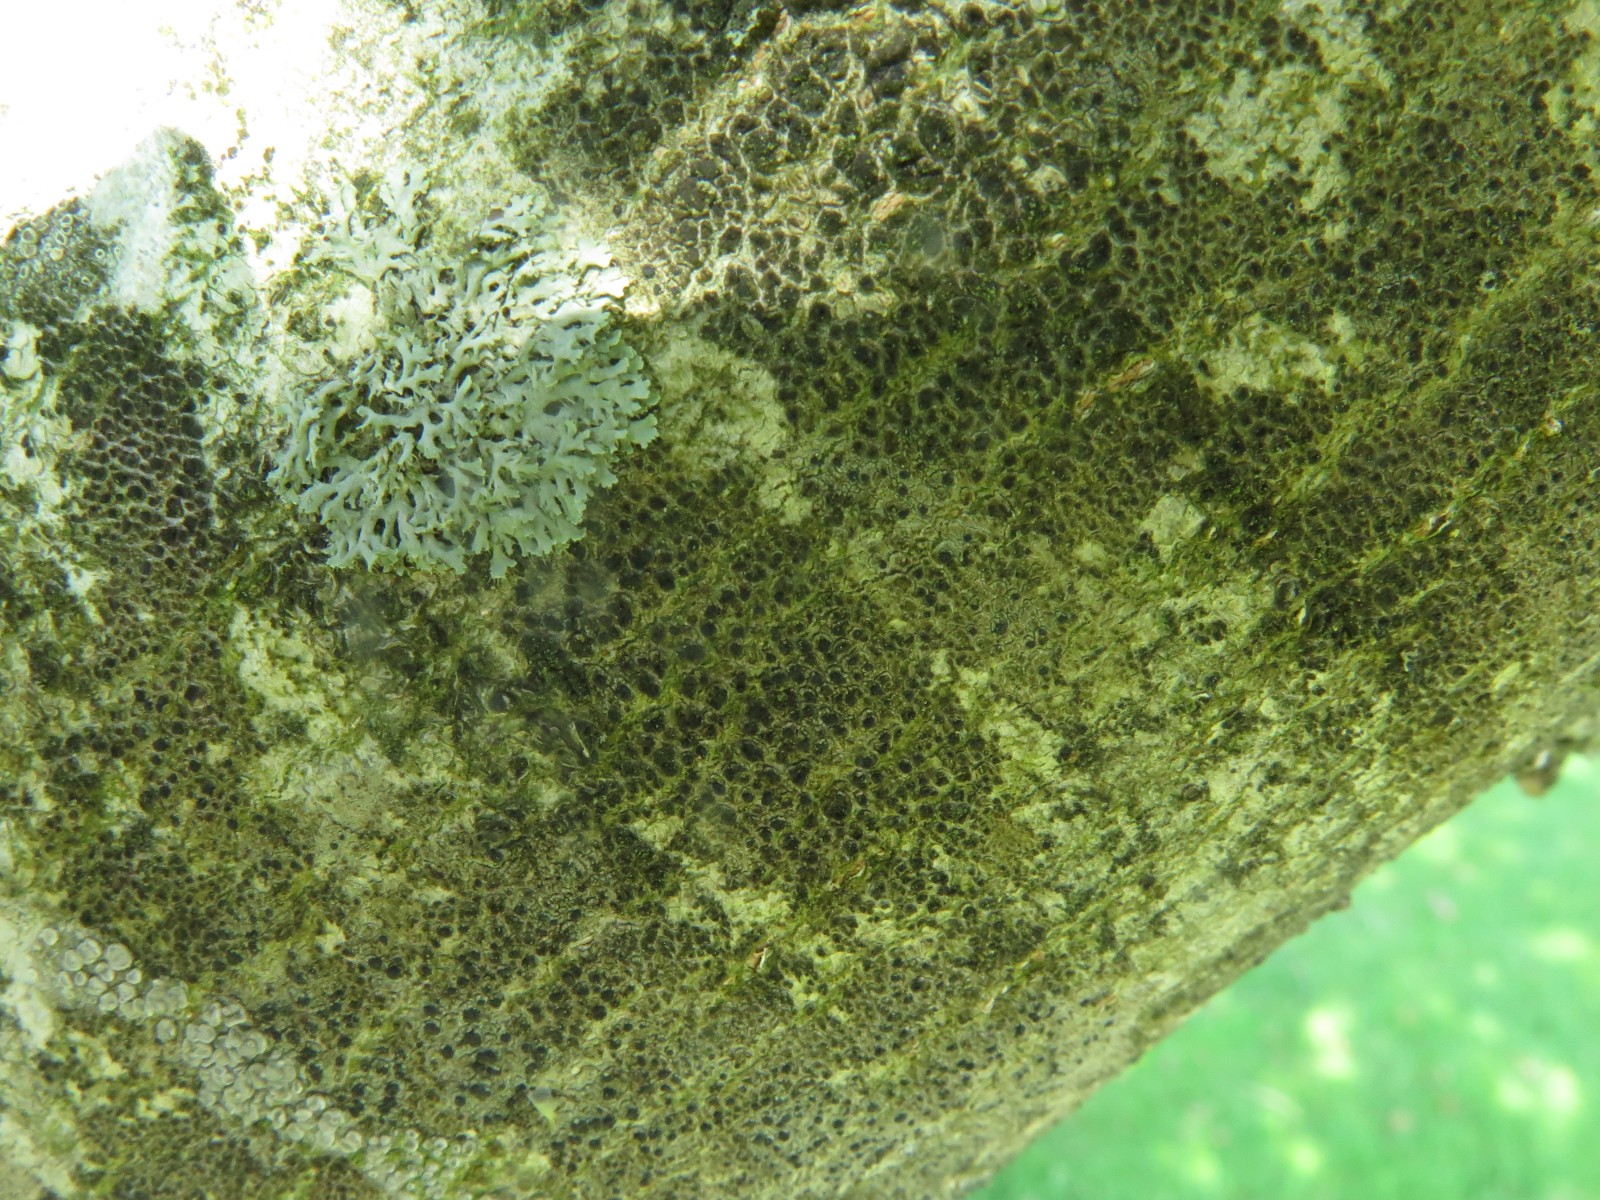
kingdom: Fungi
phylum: Ascomycota
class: Lecanoromycetes
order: Lecanorales
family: Lecanoraceae
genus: Lecidella
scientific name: Lecidella elaeochroma
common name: grågrøn skivelav
